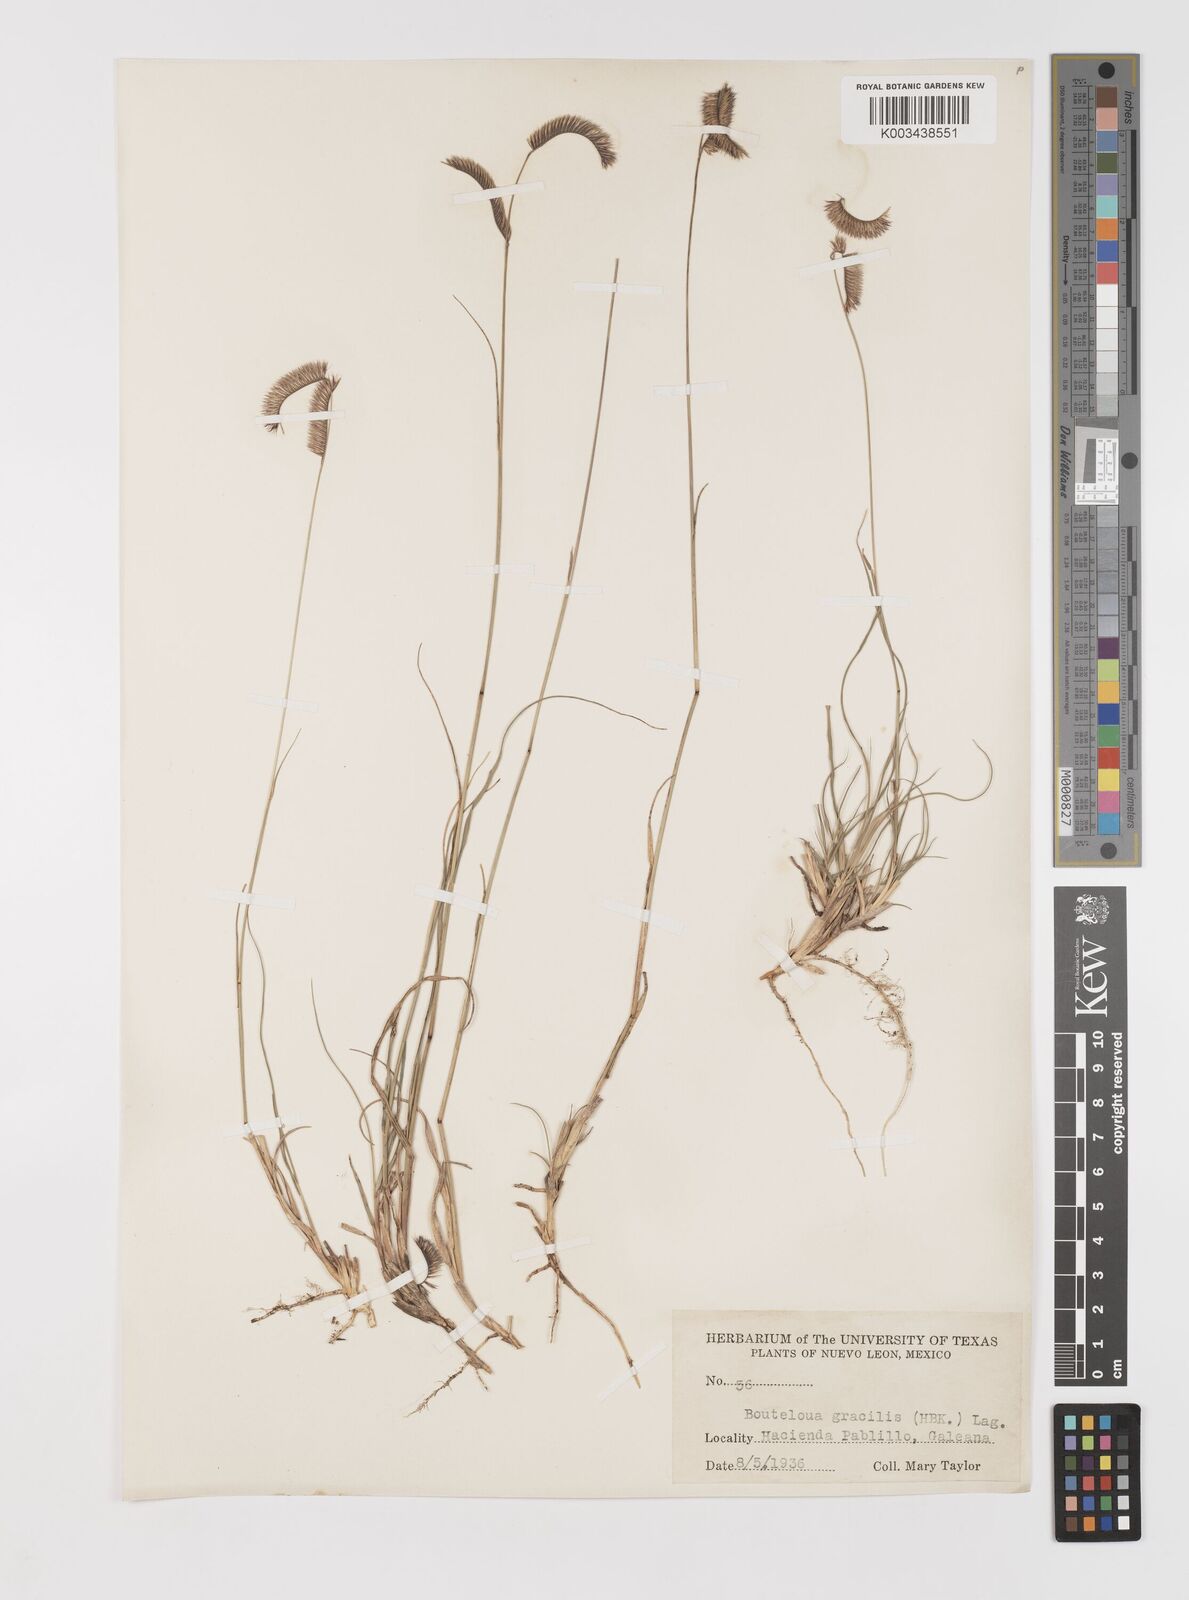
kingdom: Plantae
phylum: Tracheophyta
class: Liliopsida
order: Poales
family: Poaceae
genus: Bouteloua
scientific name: Bouteloua gracilis
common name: Blue grama
